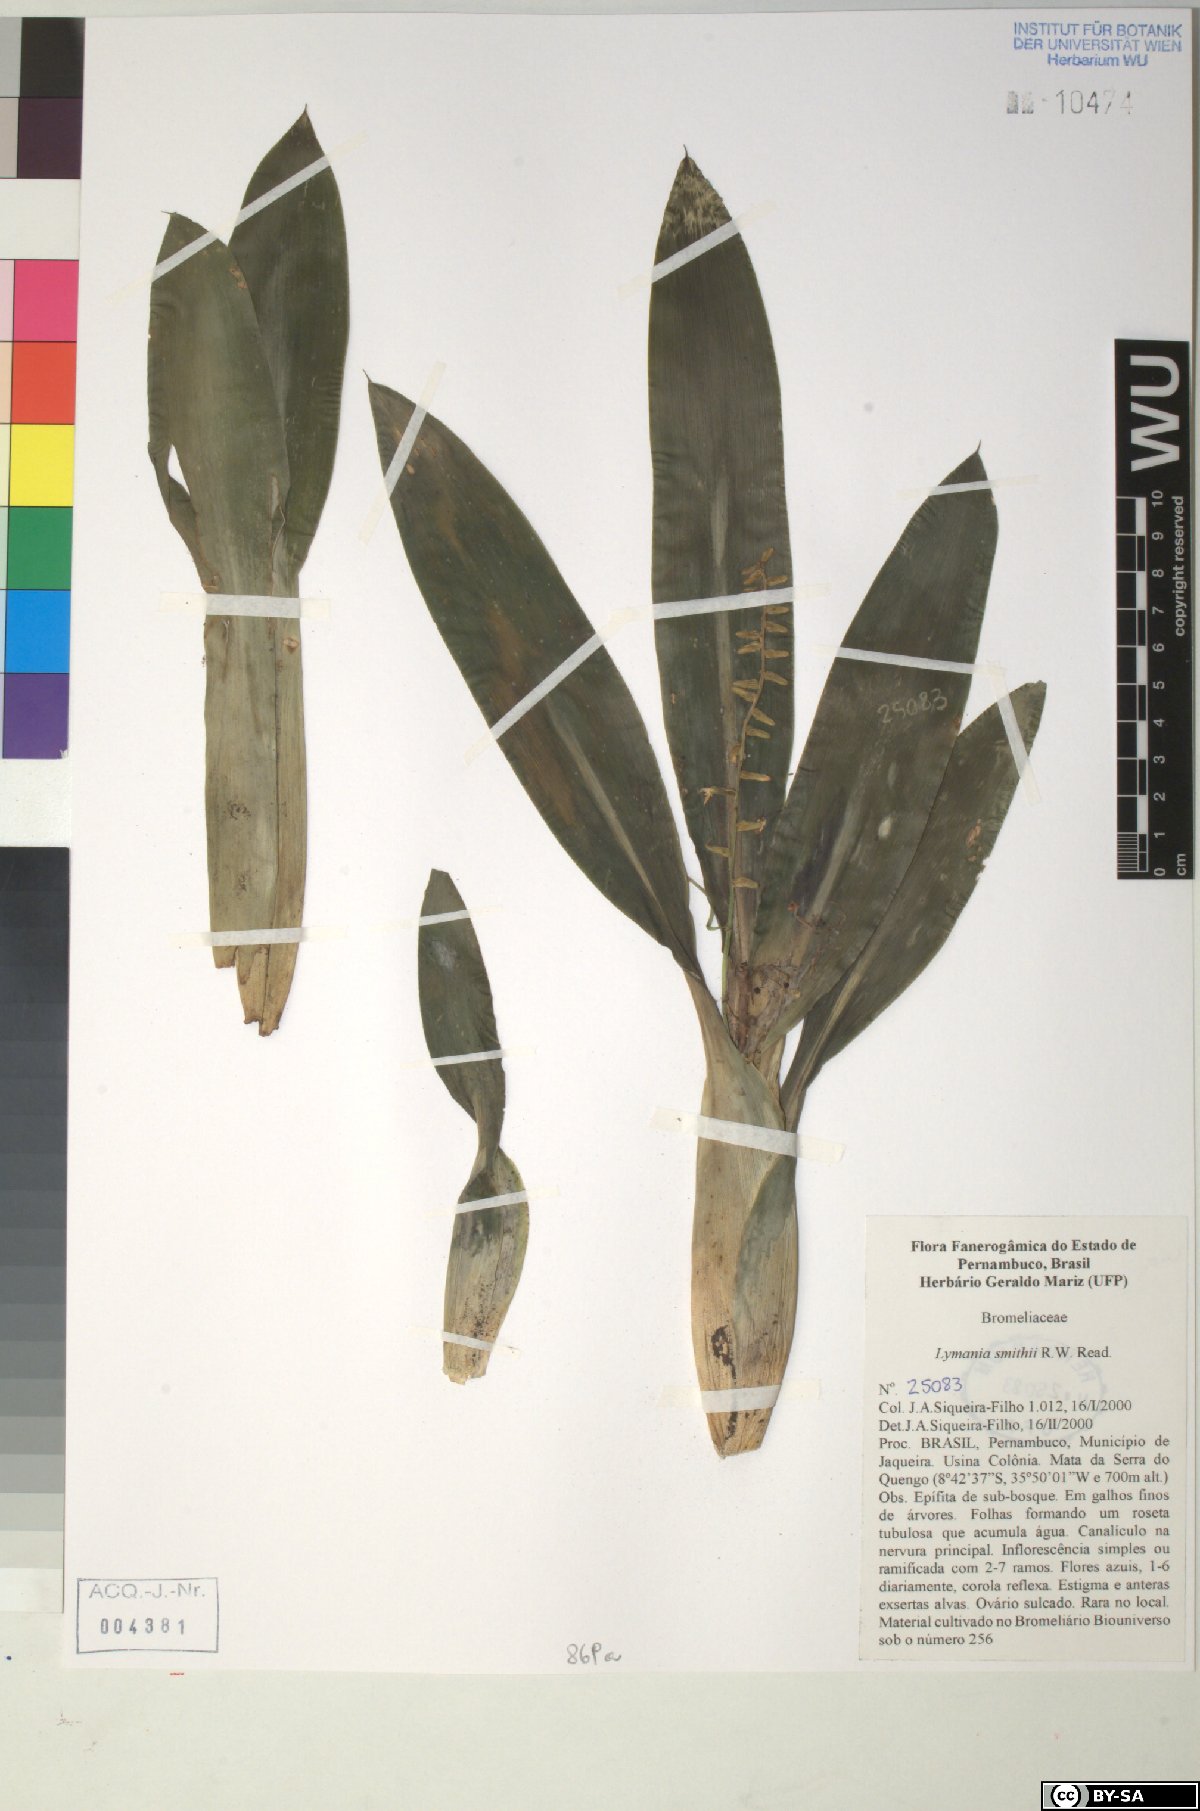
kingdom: Plantae
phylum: Tracheophyta
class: Liliopsida
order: Poales
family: Bromeliaceae
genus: Lymania
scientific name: Lymania smithii
